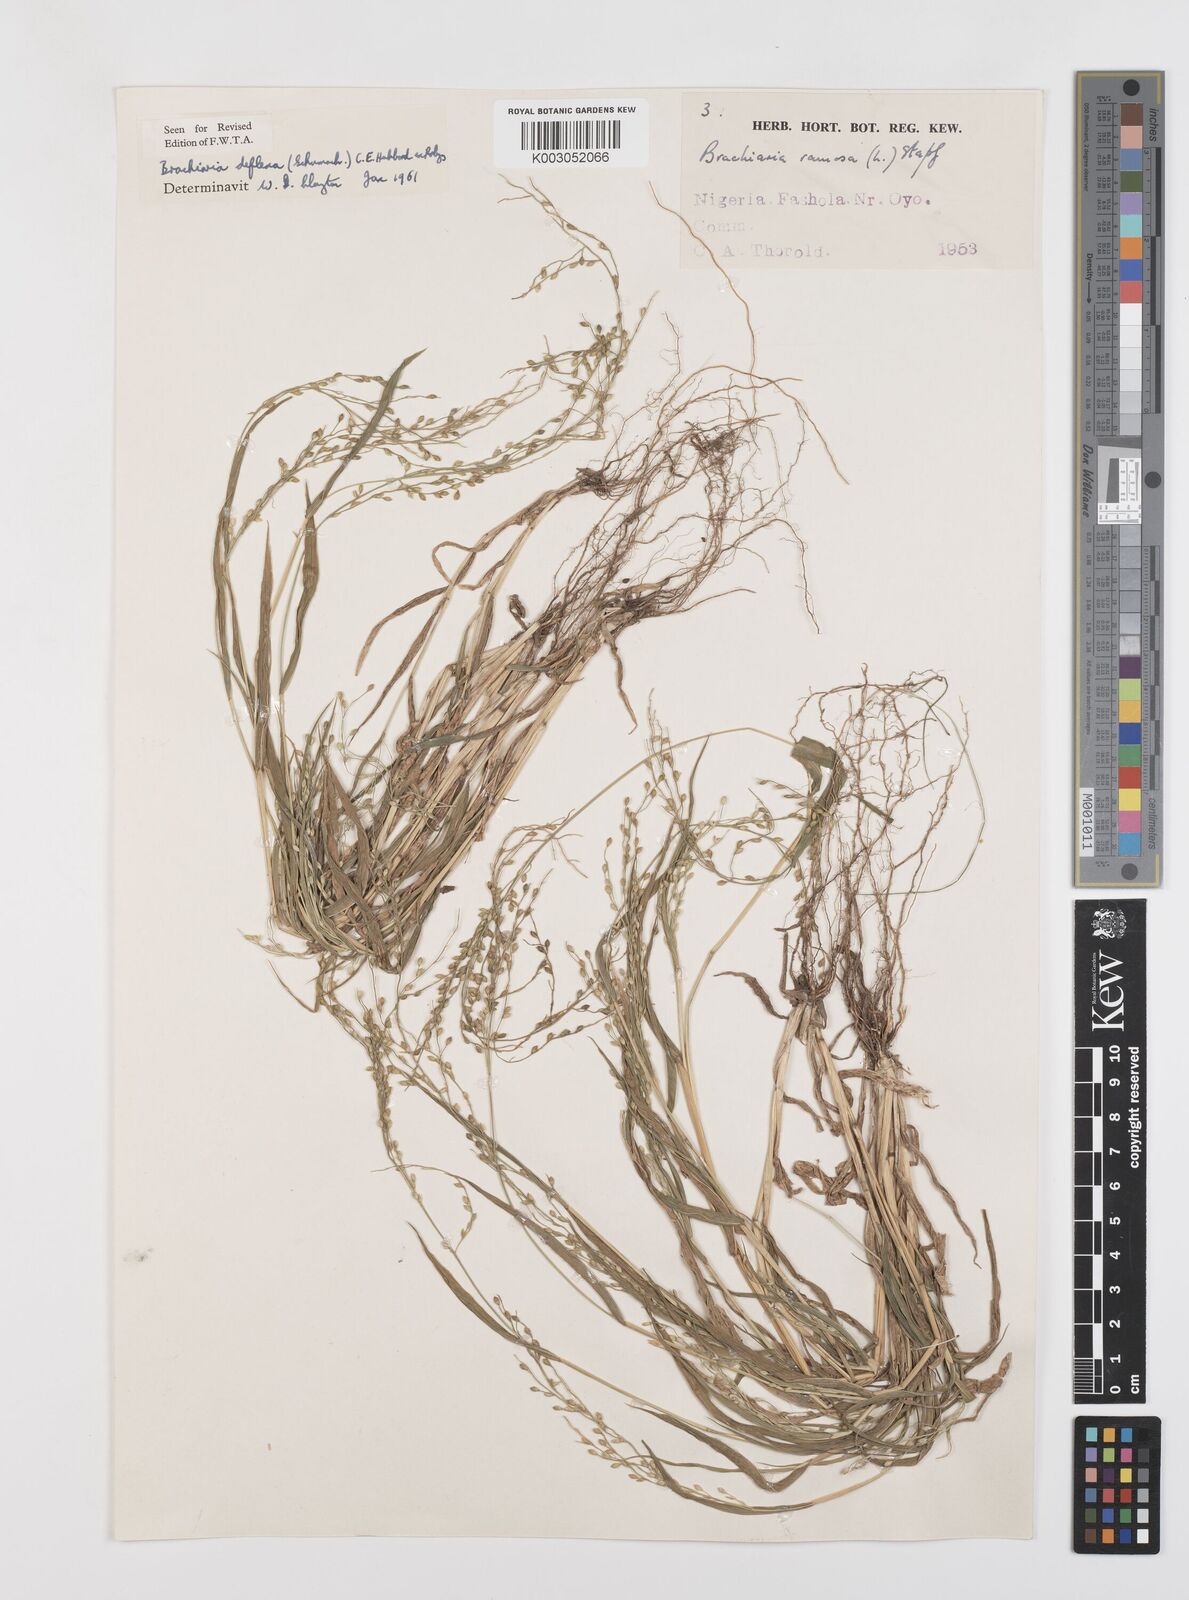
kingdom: Plantae
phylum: Tracheophyta
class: Liliopsida
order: Poales
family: Poaceae
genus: Urochloa
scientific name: Urochloa deflexa
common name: Guinea millet
